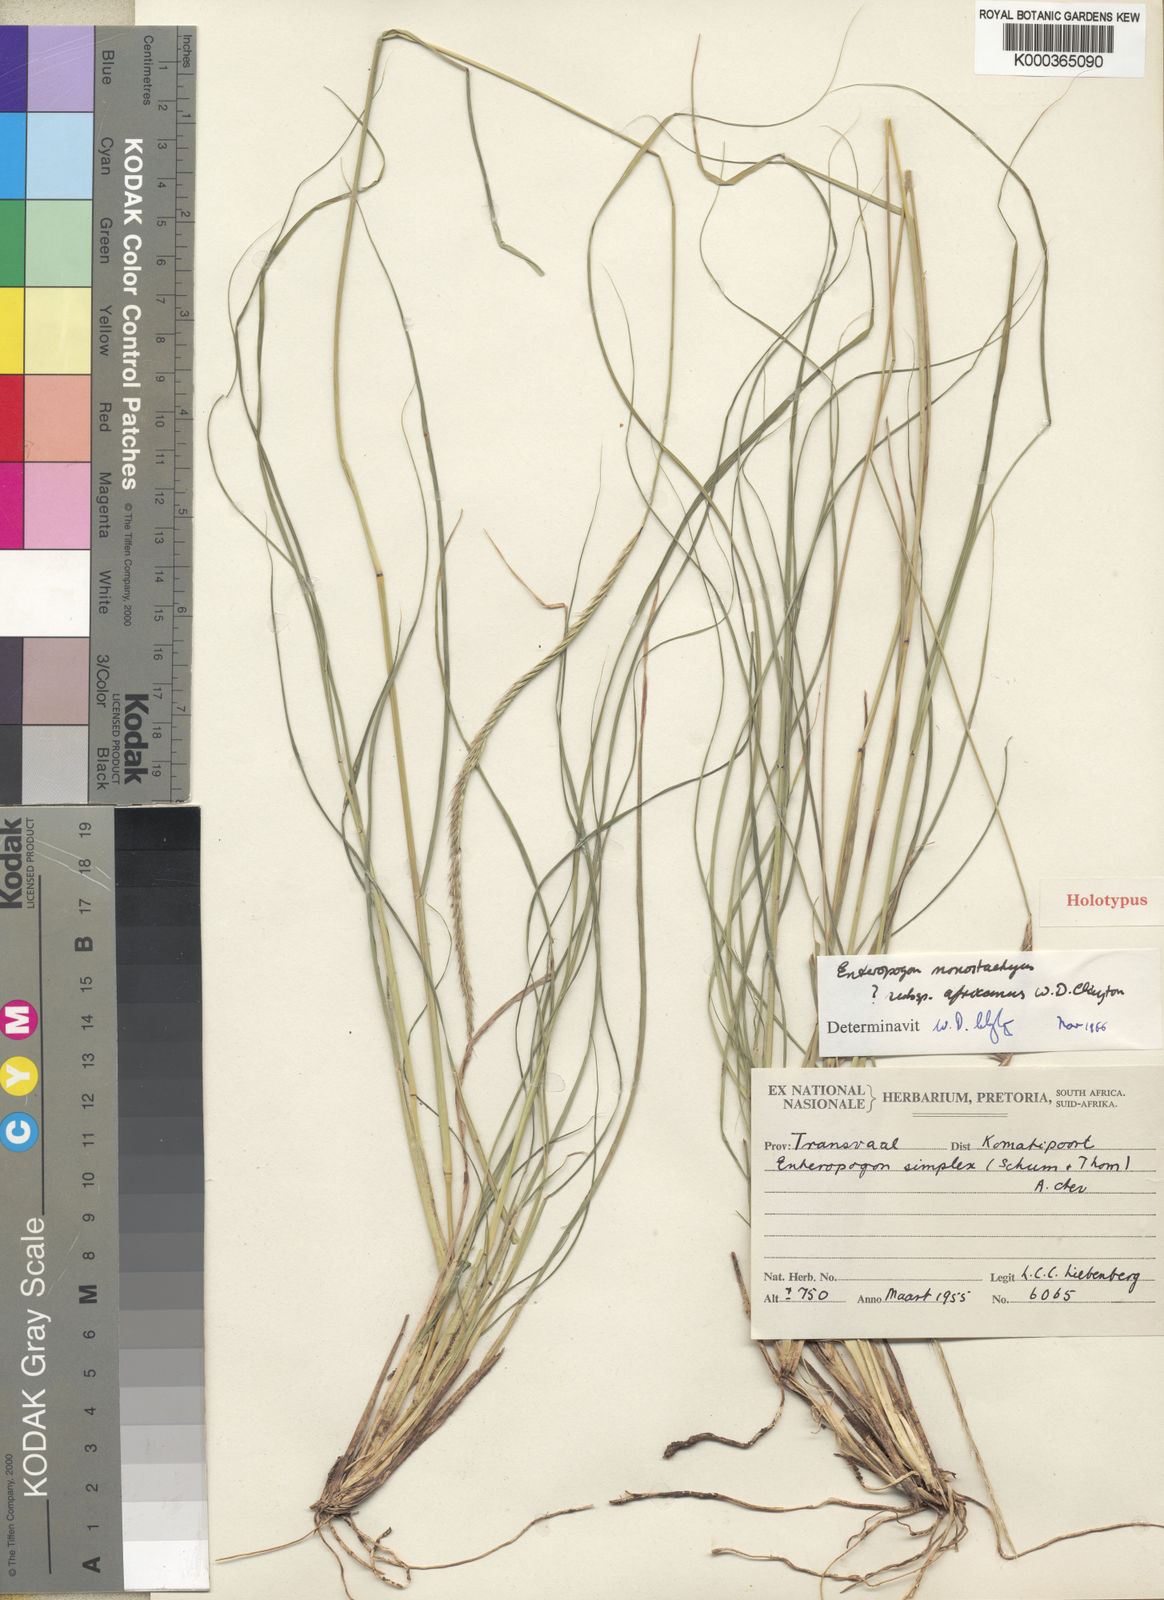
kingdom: Plantae
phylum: Tracheophyta
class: Liliopsida
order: Poales
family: Poaceae
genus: Enteropogon
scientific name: Enteropogon monostachyos
